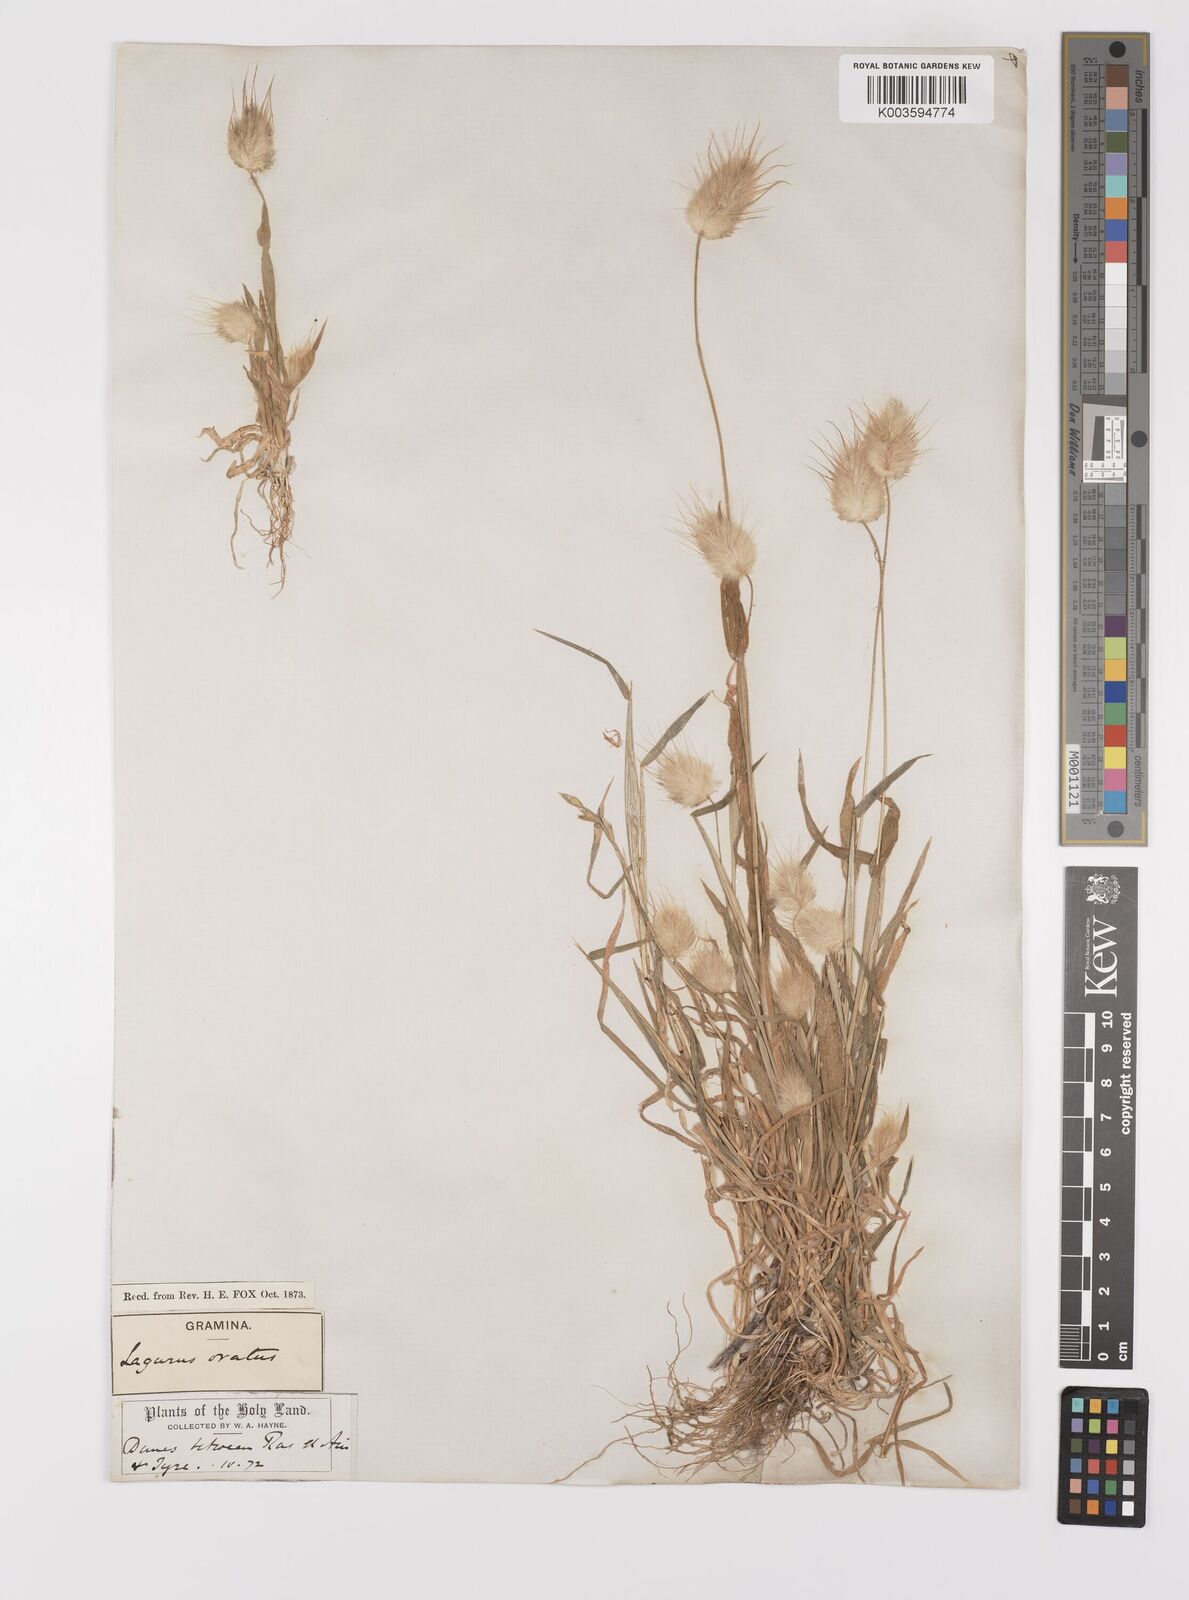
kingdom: Plantae
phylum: Tracheophyta
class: Liliopsida
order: Poales
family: Poaceae
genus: Lagurus
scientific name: Lagurus ovatus
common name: Hare's-tail
